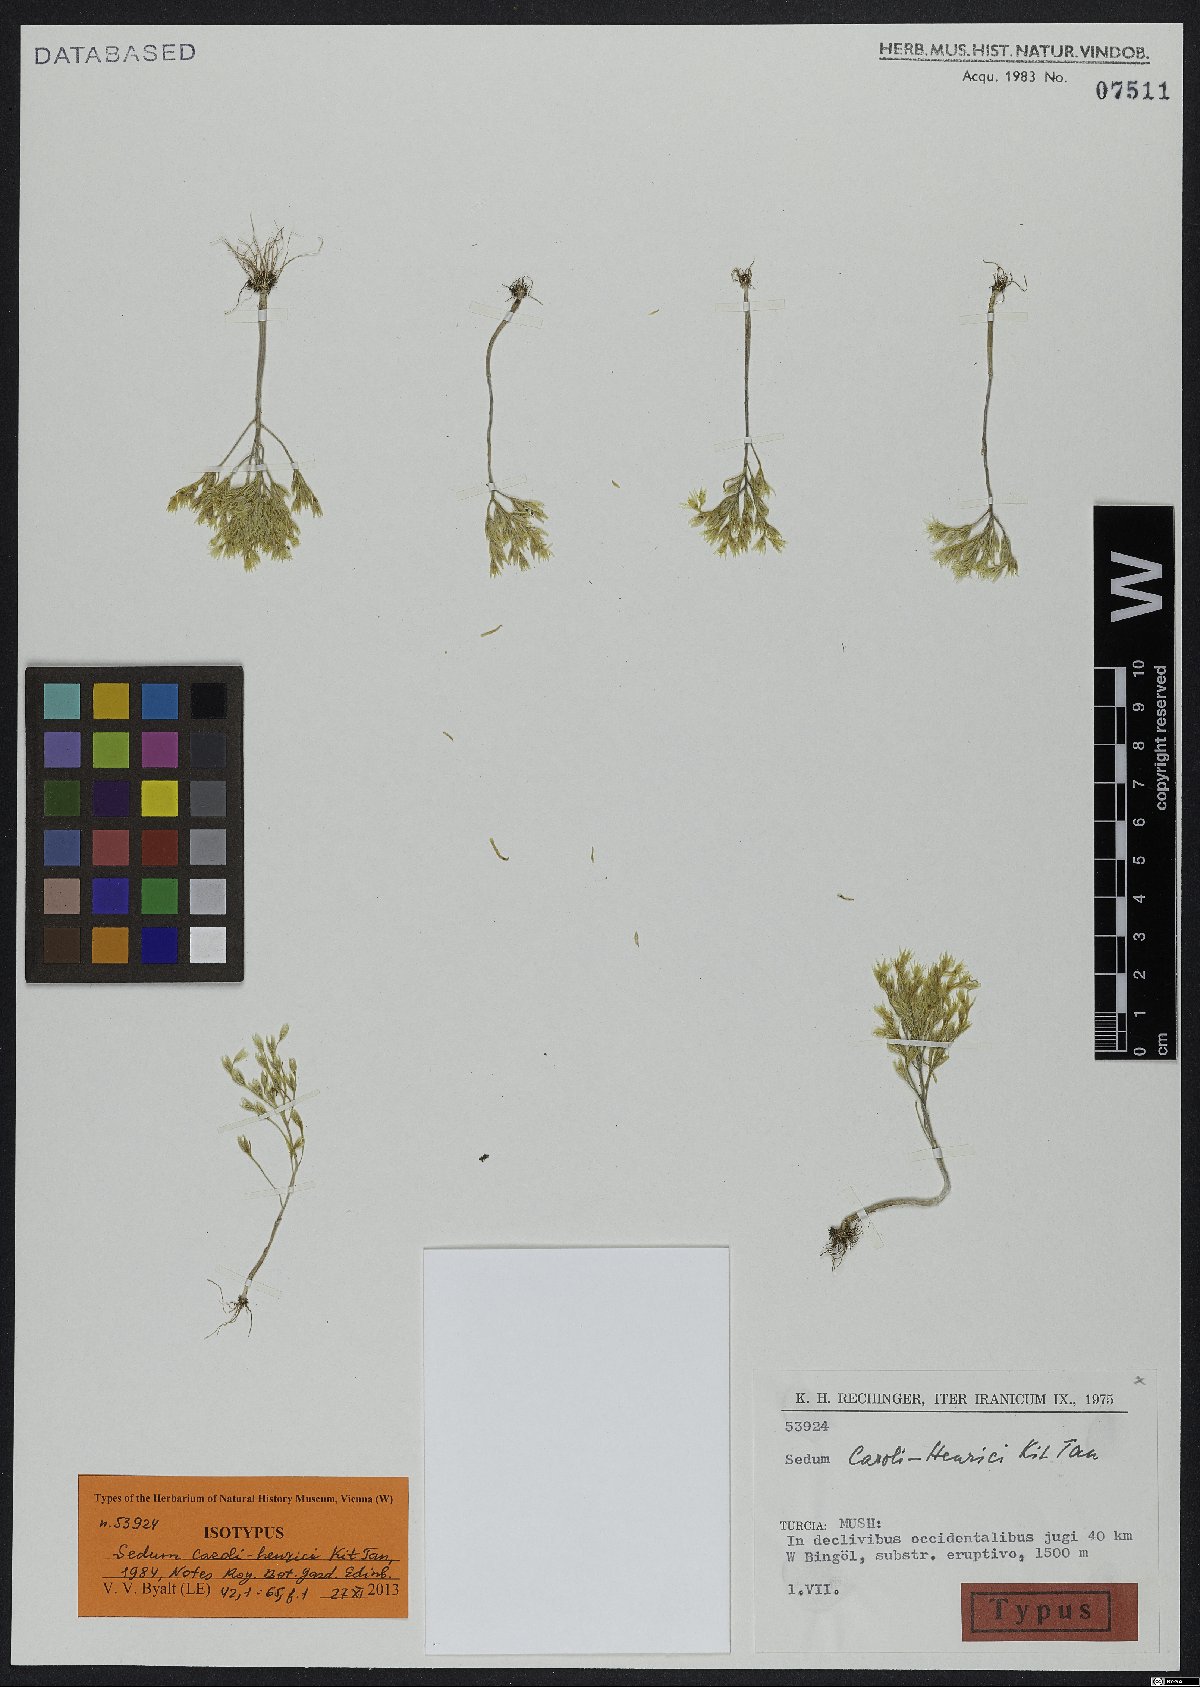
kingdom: Plantae
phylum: Tracheophyta
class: Magnoliopsida
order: Saxifragales
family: Crassulaceae
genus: Sedum
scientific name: Sedum caroli-henrici
